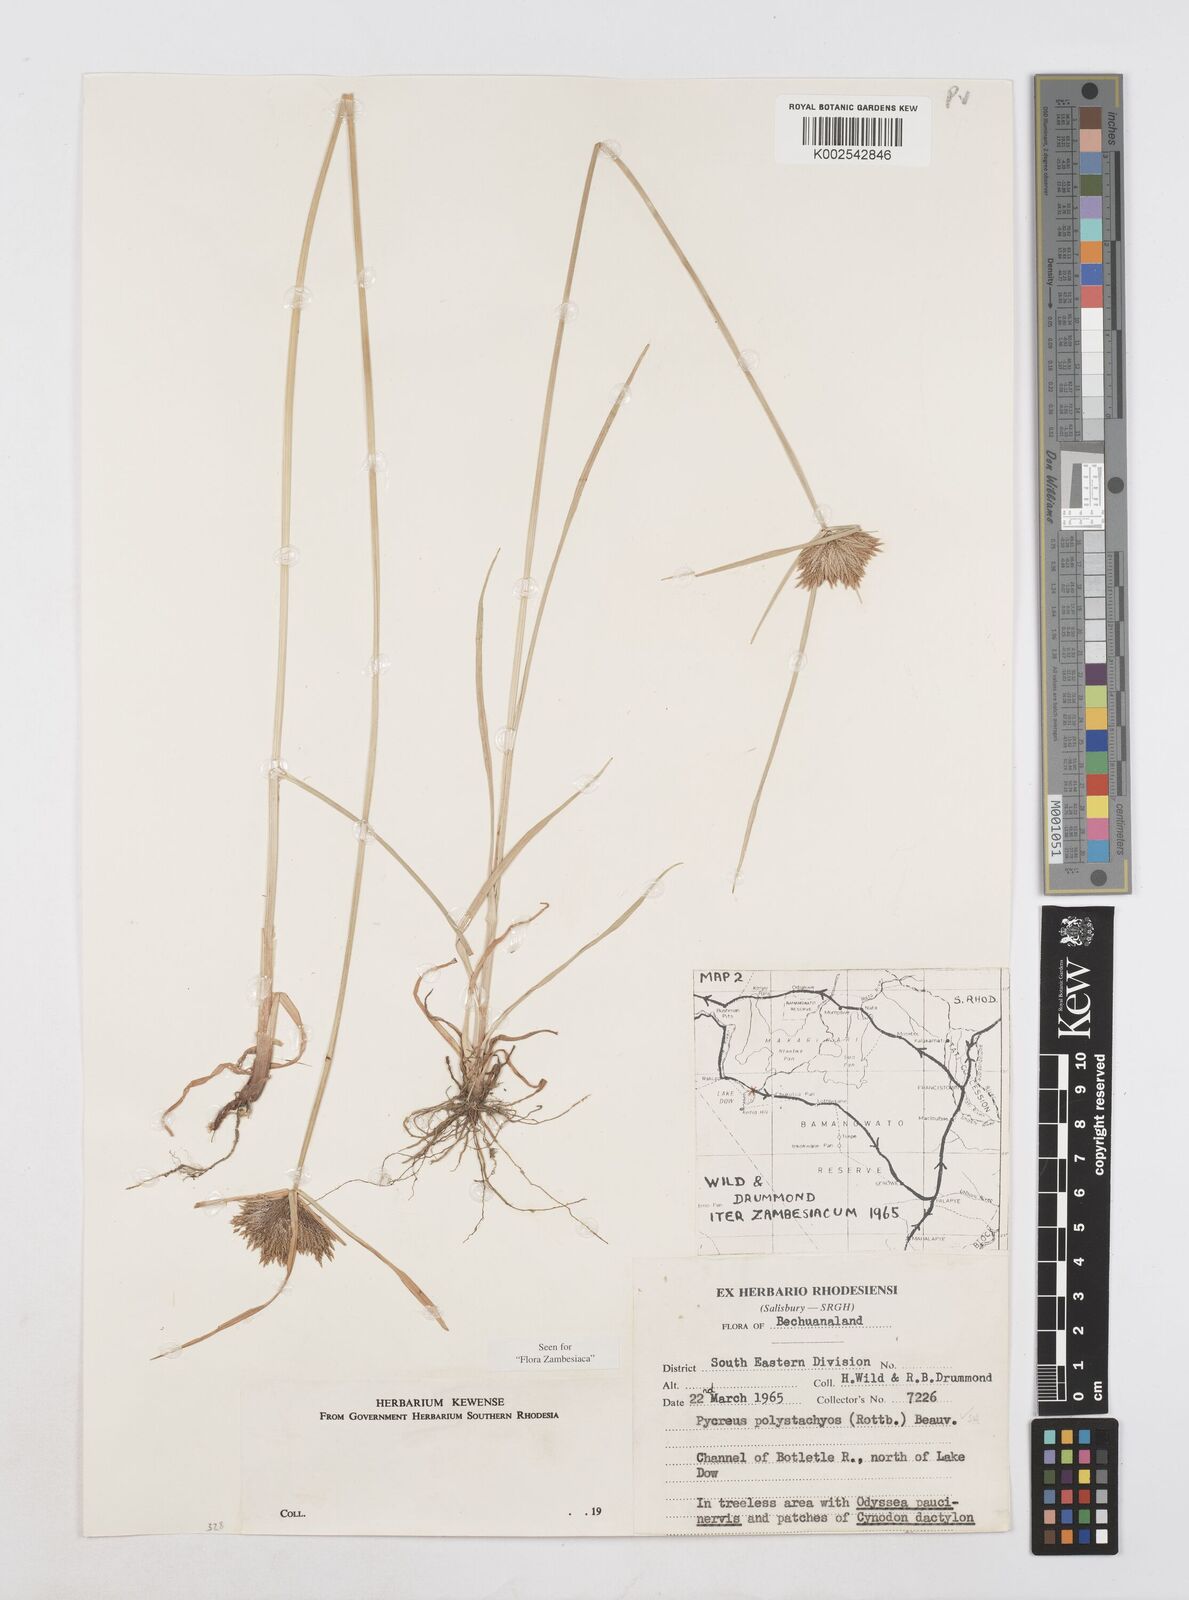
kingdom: Plantae
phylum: Tracheophyta
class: Liliopsida
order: Poales
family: Cyperaceae
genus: Cyperus
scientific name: Cyperus polystachyos
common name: Bunchy flat sedge
